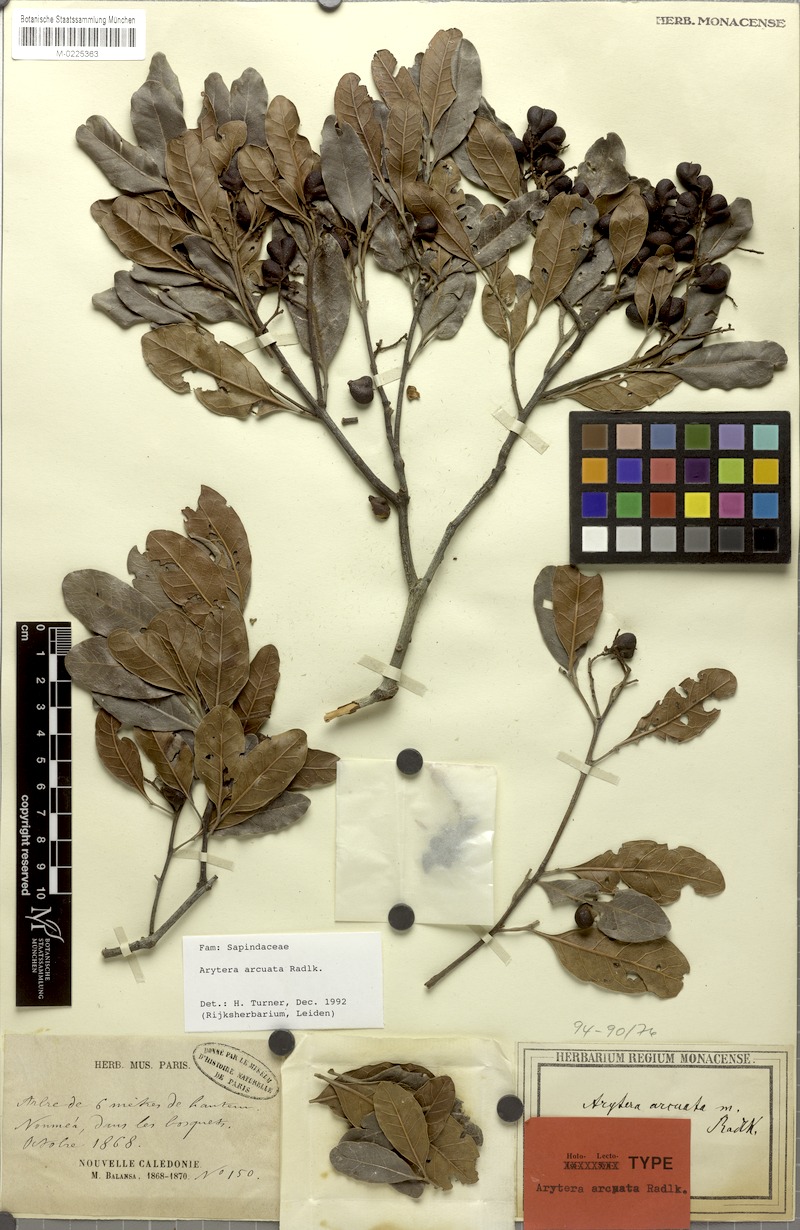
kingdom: Plantae
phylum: Tracheophyta
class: Magnoliopsida
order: Sapindales
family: Sapindaceae
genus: Lepidocupania
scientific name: Lepidocupania arcuata
